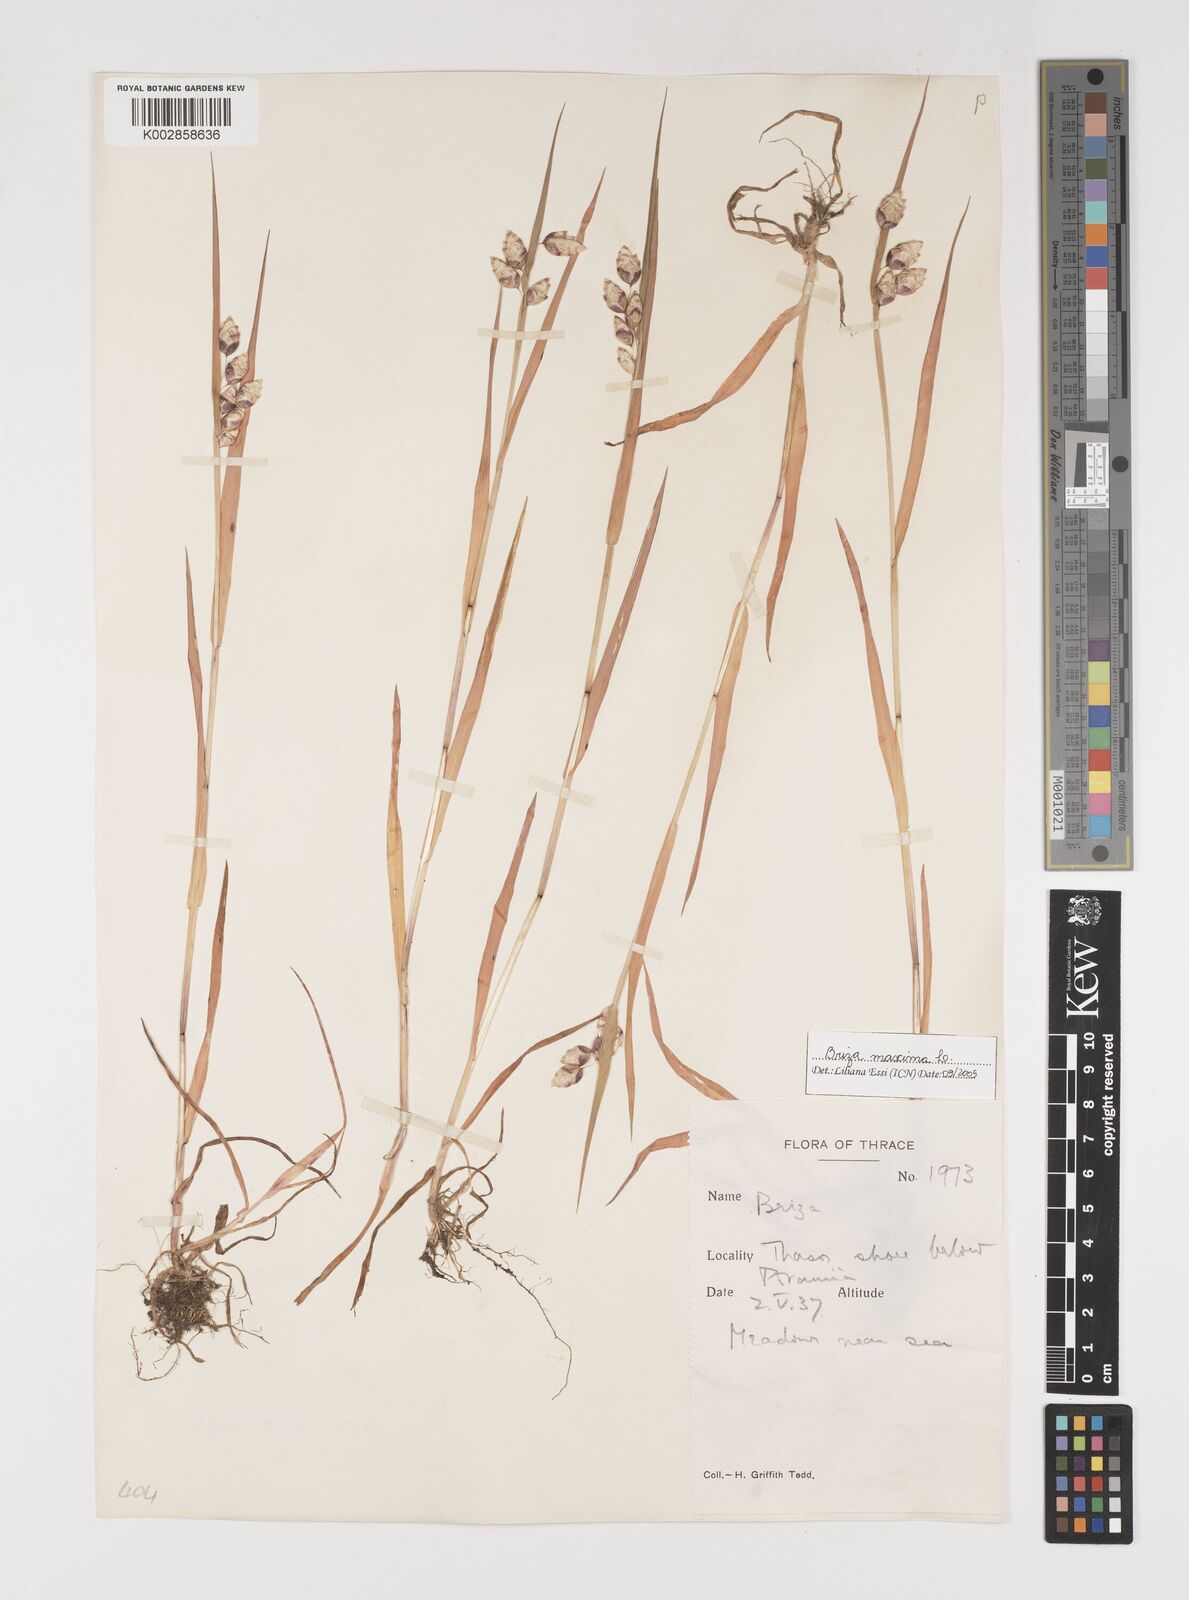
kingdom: Plantae
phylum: Tracheophyta
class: Liliopsida
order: Poales
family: Poaceae
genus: Briza
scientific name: Briza maxima
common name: Big quakinggrass
